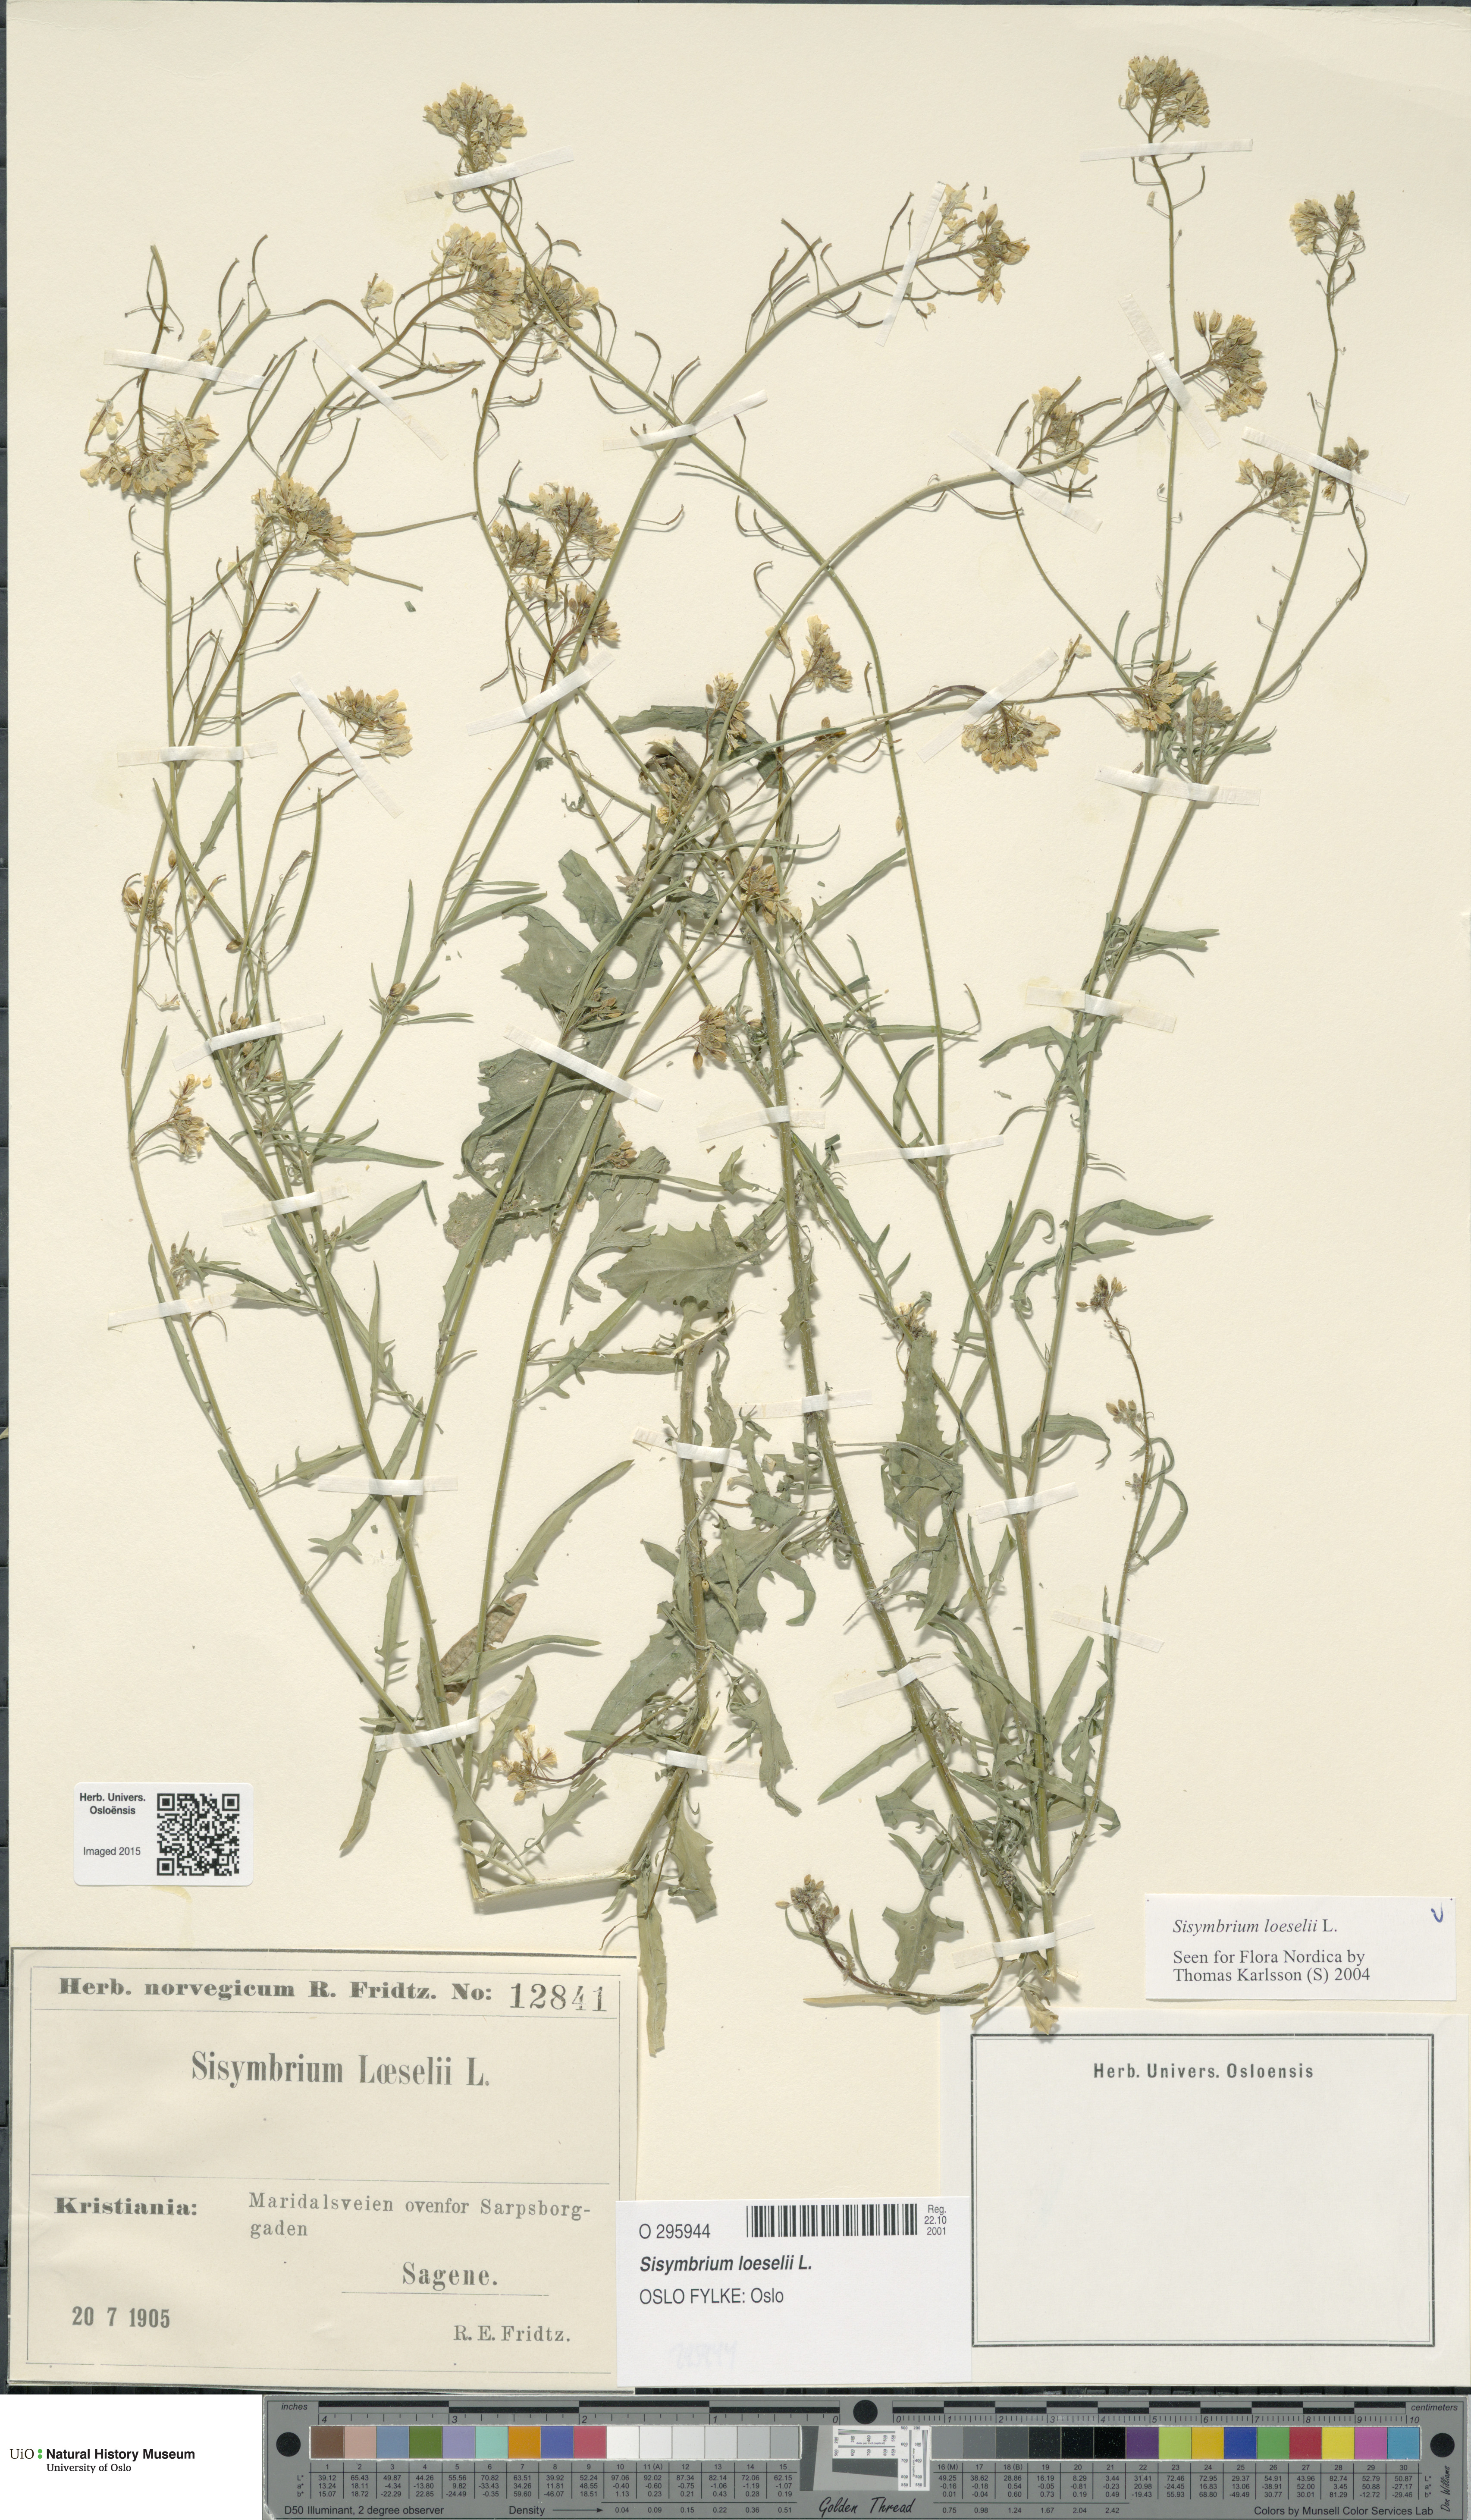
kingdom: Plantae
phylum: Tracheophyta
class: Magnoliopsida
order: Brassicales
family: Brassicaceae
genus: Sisymbrium
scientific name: Sisymbrium loeselii
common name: False london-rocket
